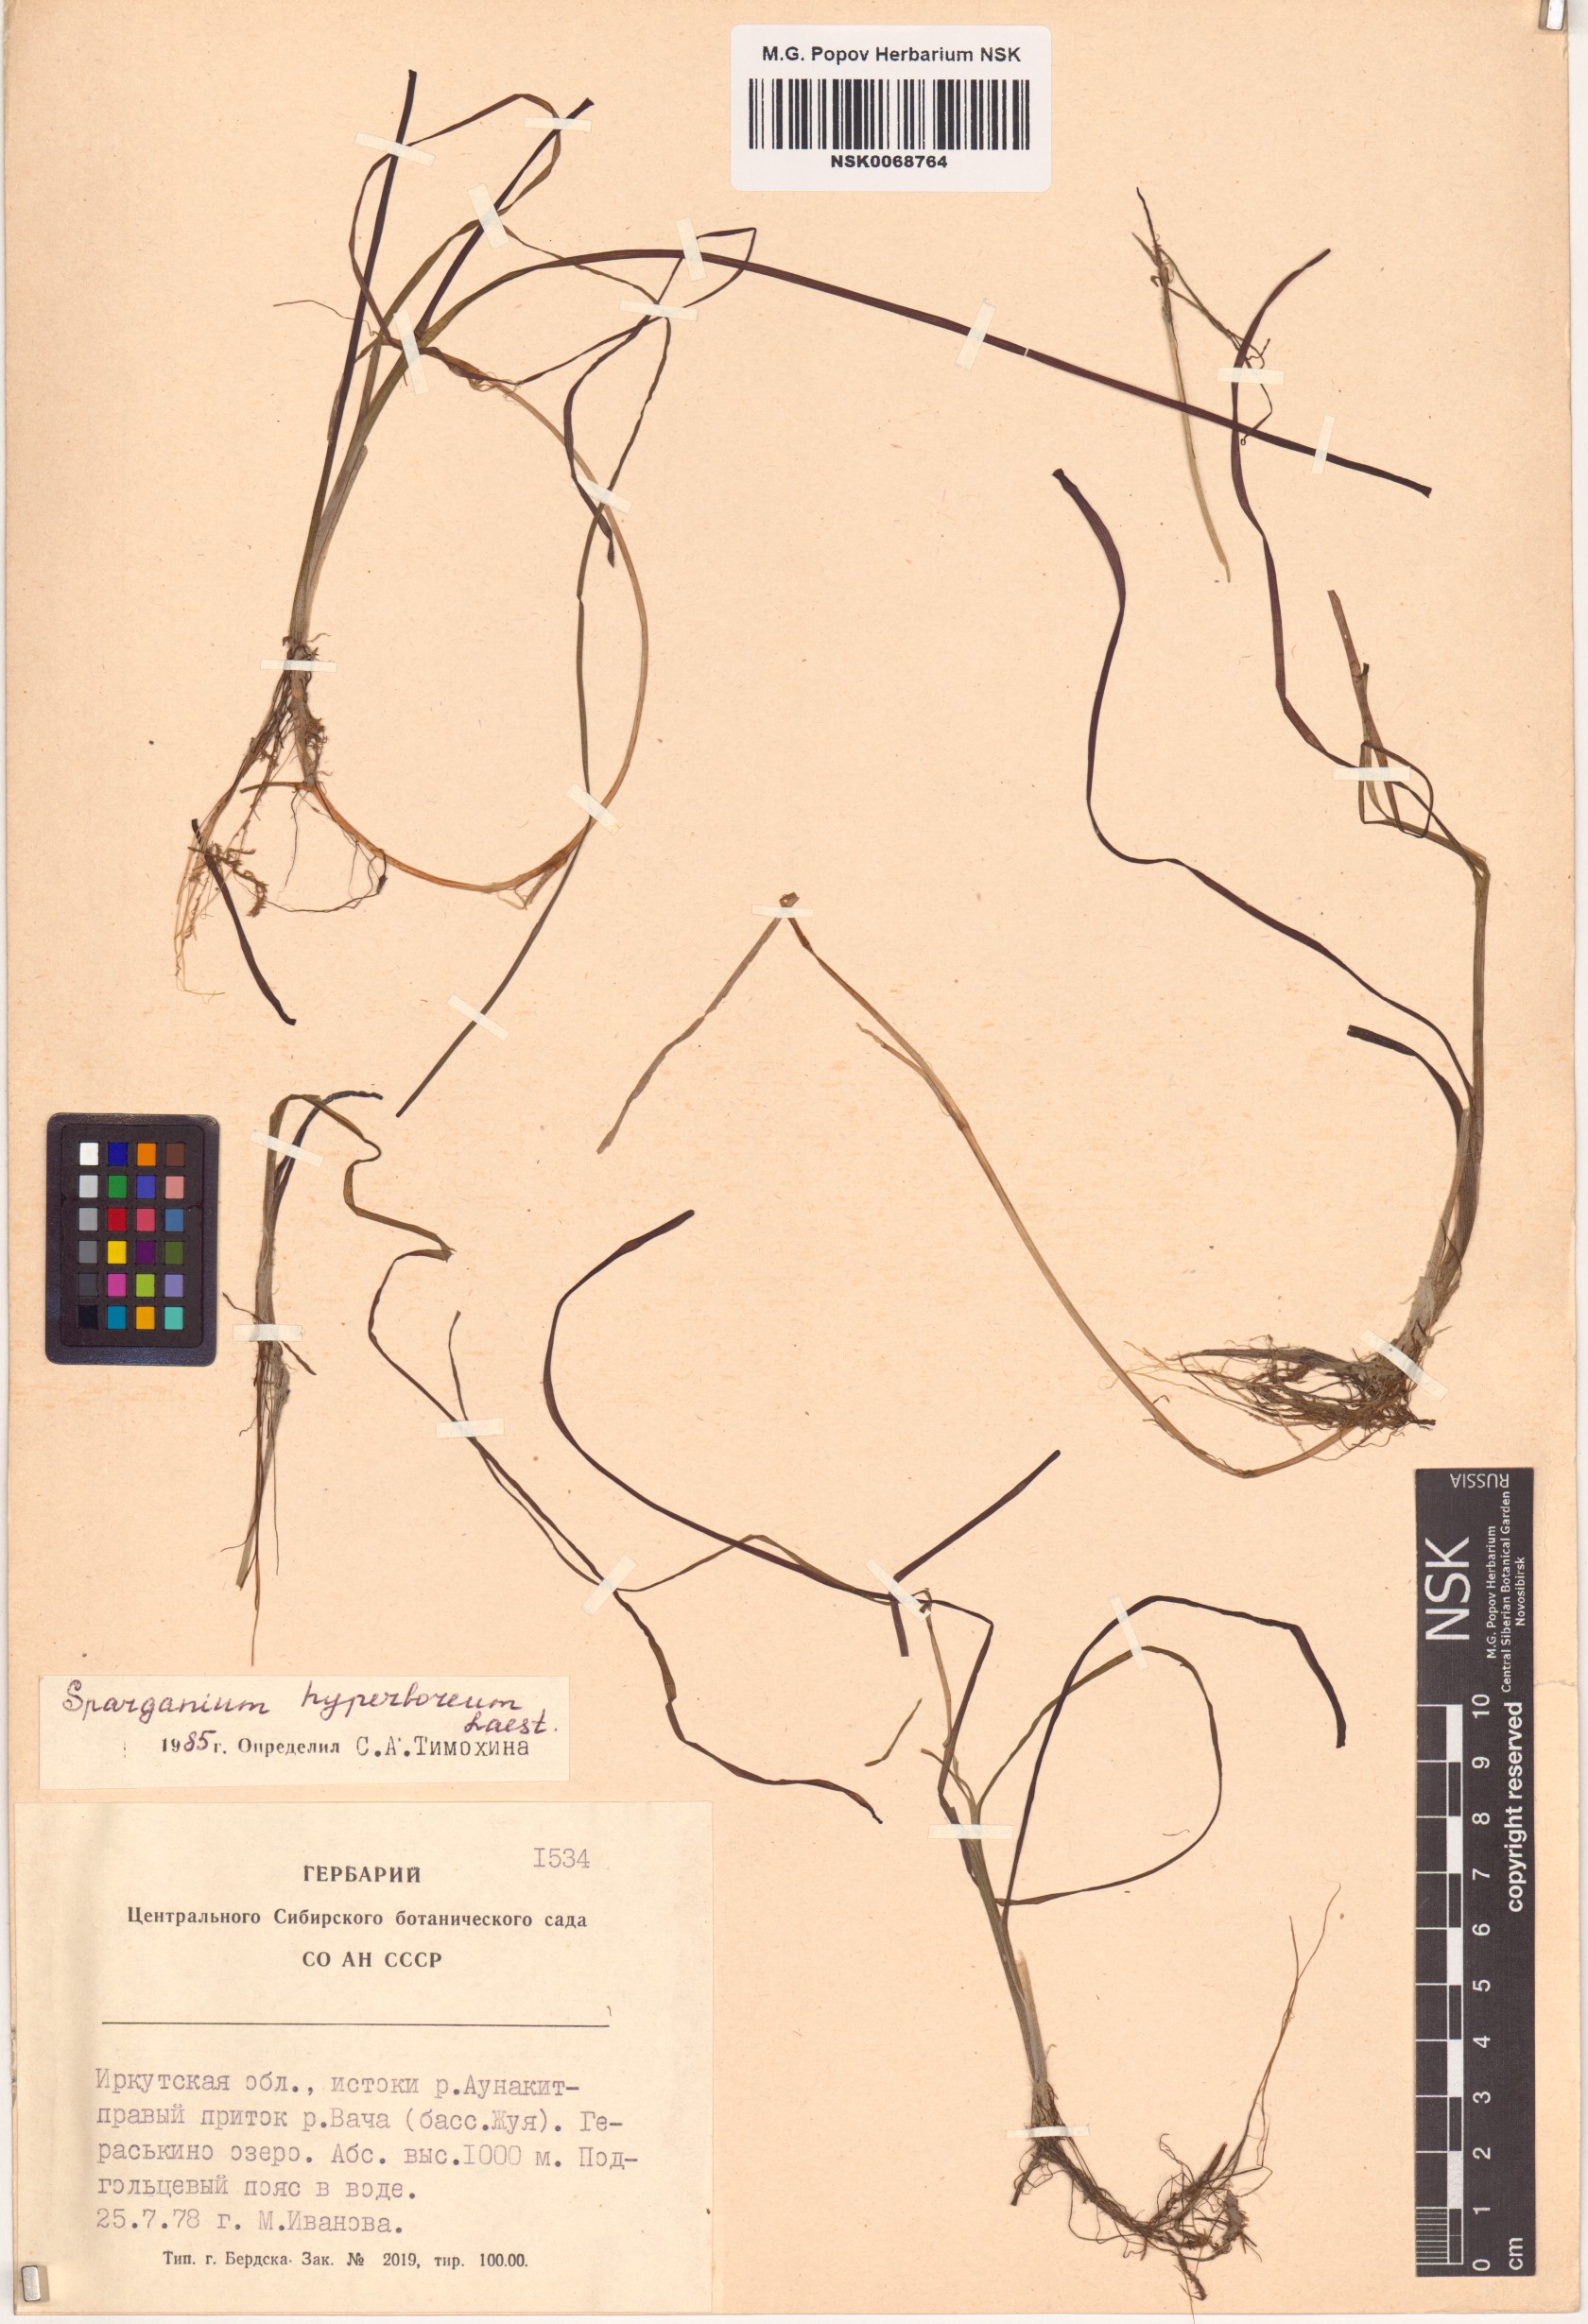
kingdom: Plantae
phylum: Tracheophyta
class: Liliopsida
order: Poales
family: Typhaceae
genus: Sparganium
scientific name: Sparganium hyperboreum
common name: Arctic burreed
